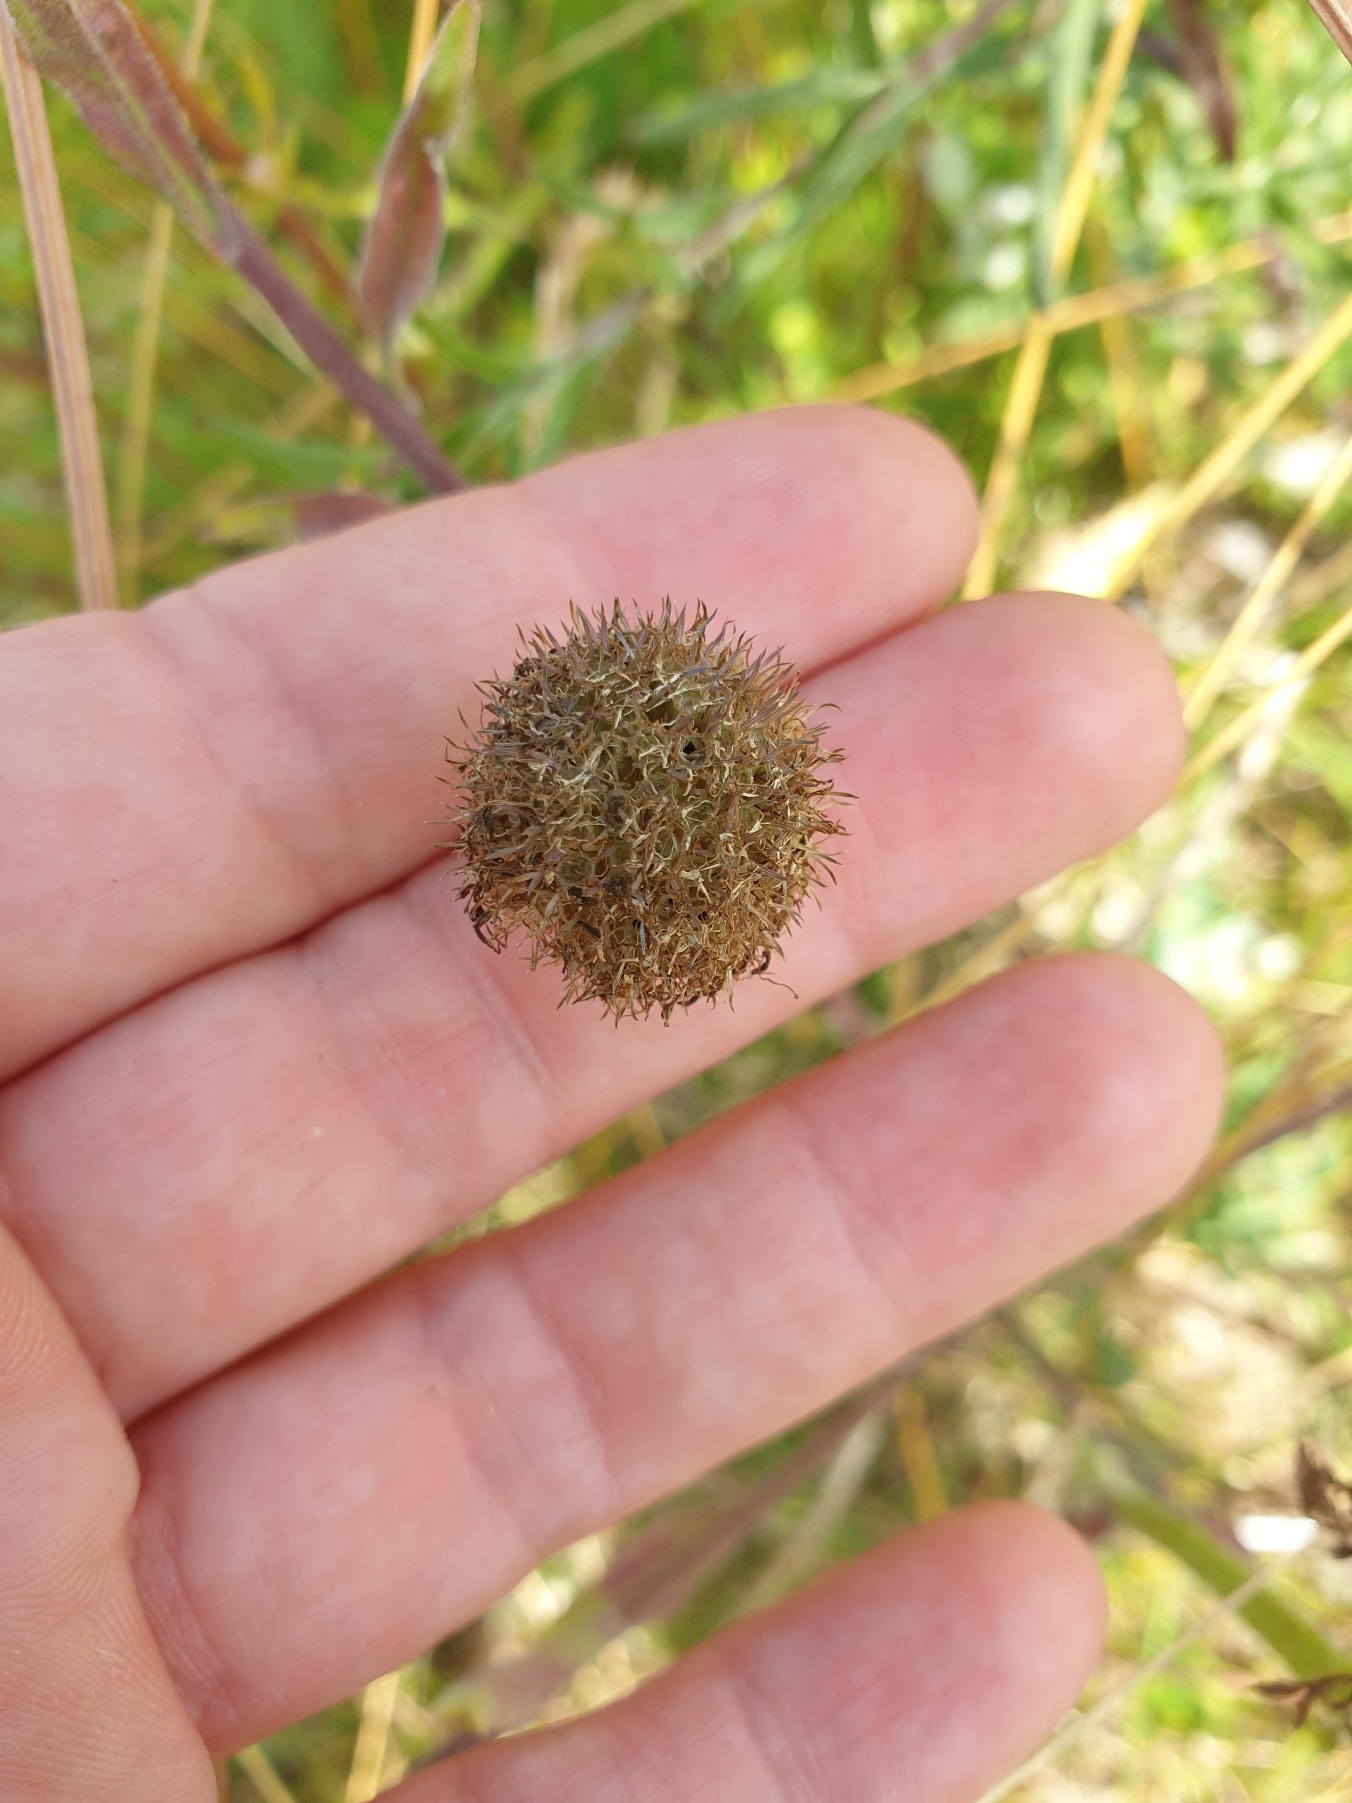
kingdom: Plantae
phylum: Tracheophyta
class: Magnoliopsida
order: Asterales
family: Campanulaceae
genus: Jasione
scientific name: Jasione montana
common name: Blåmunke
